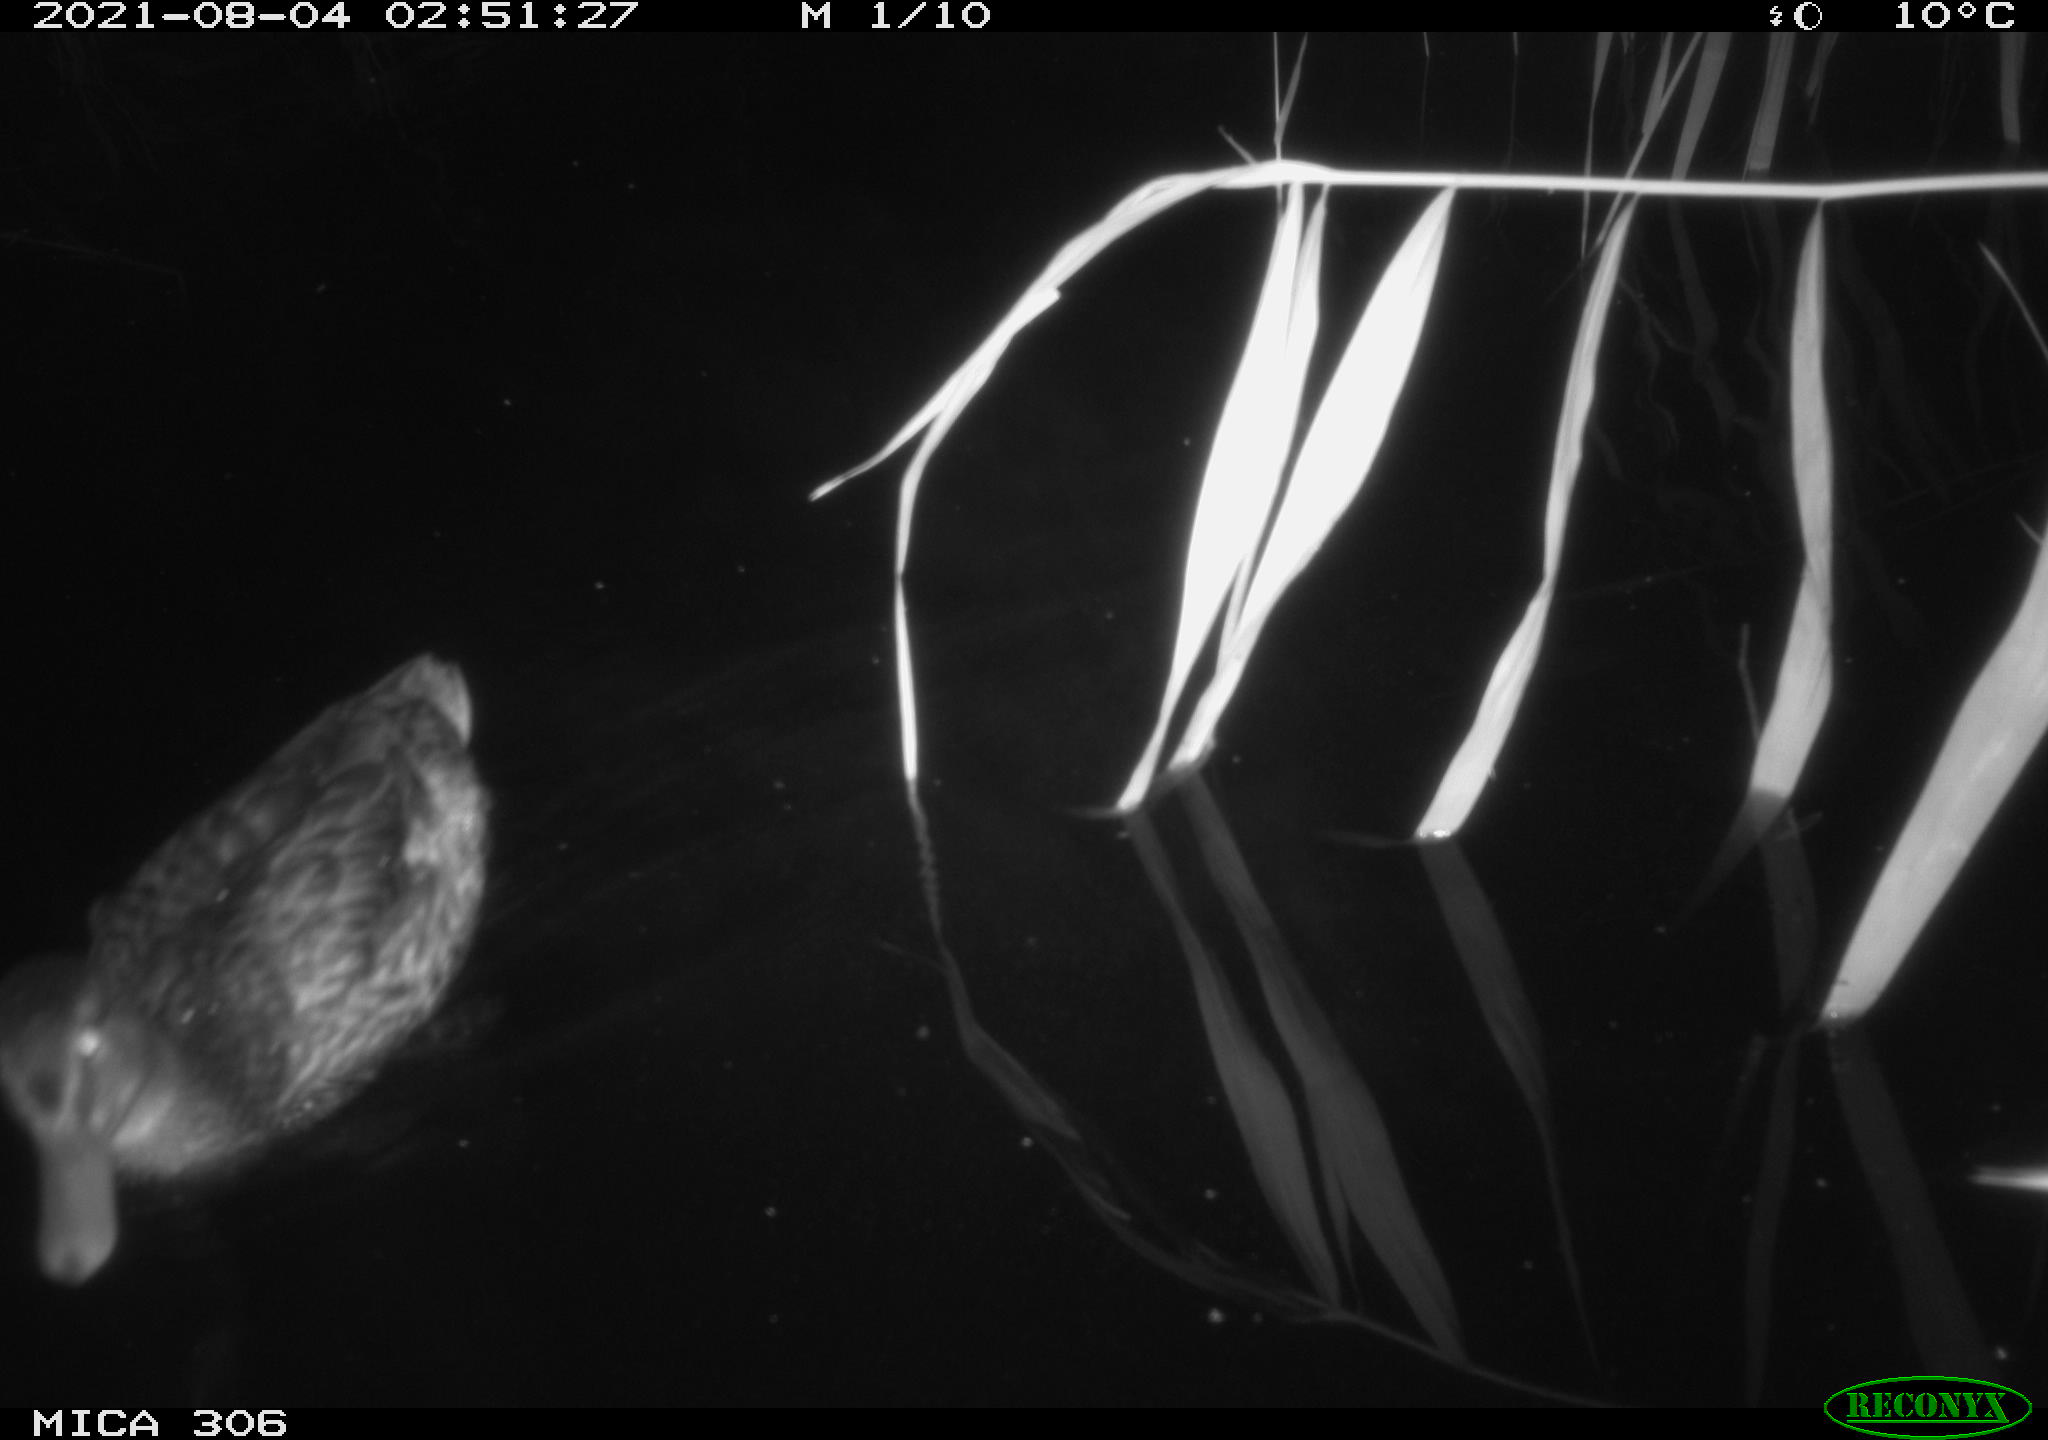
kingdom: Animalia
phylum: Chordata
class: Aves
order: Anseriformes
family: Anatidae
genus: Anas
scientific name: Anas platyrhynchos
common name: Mallard
